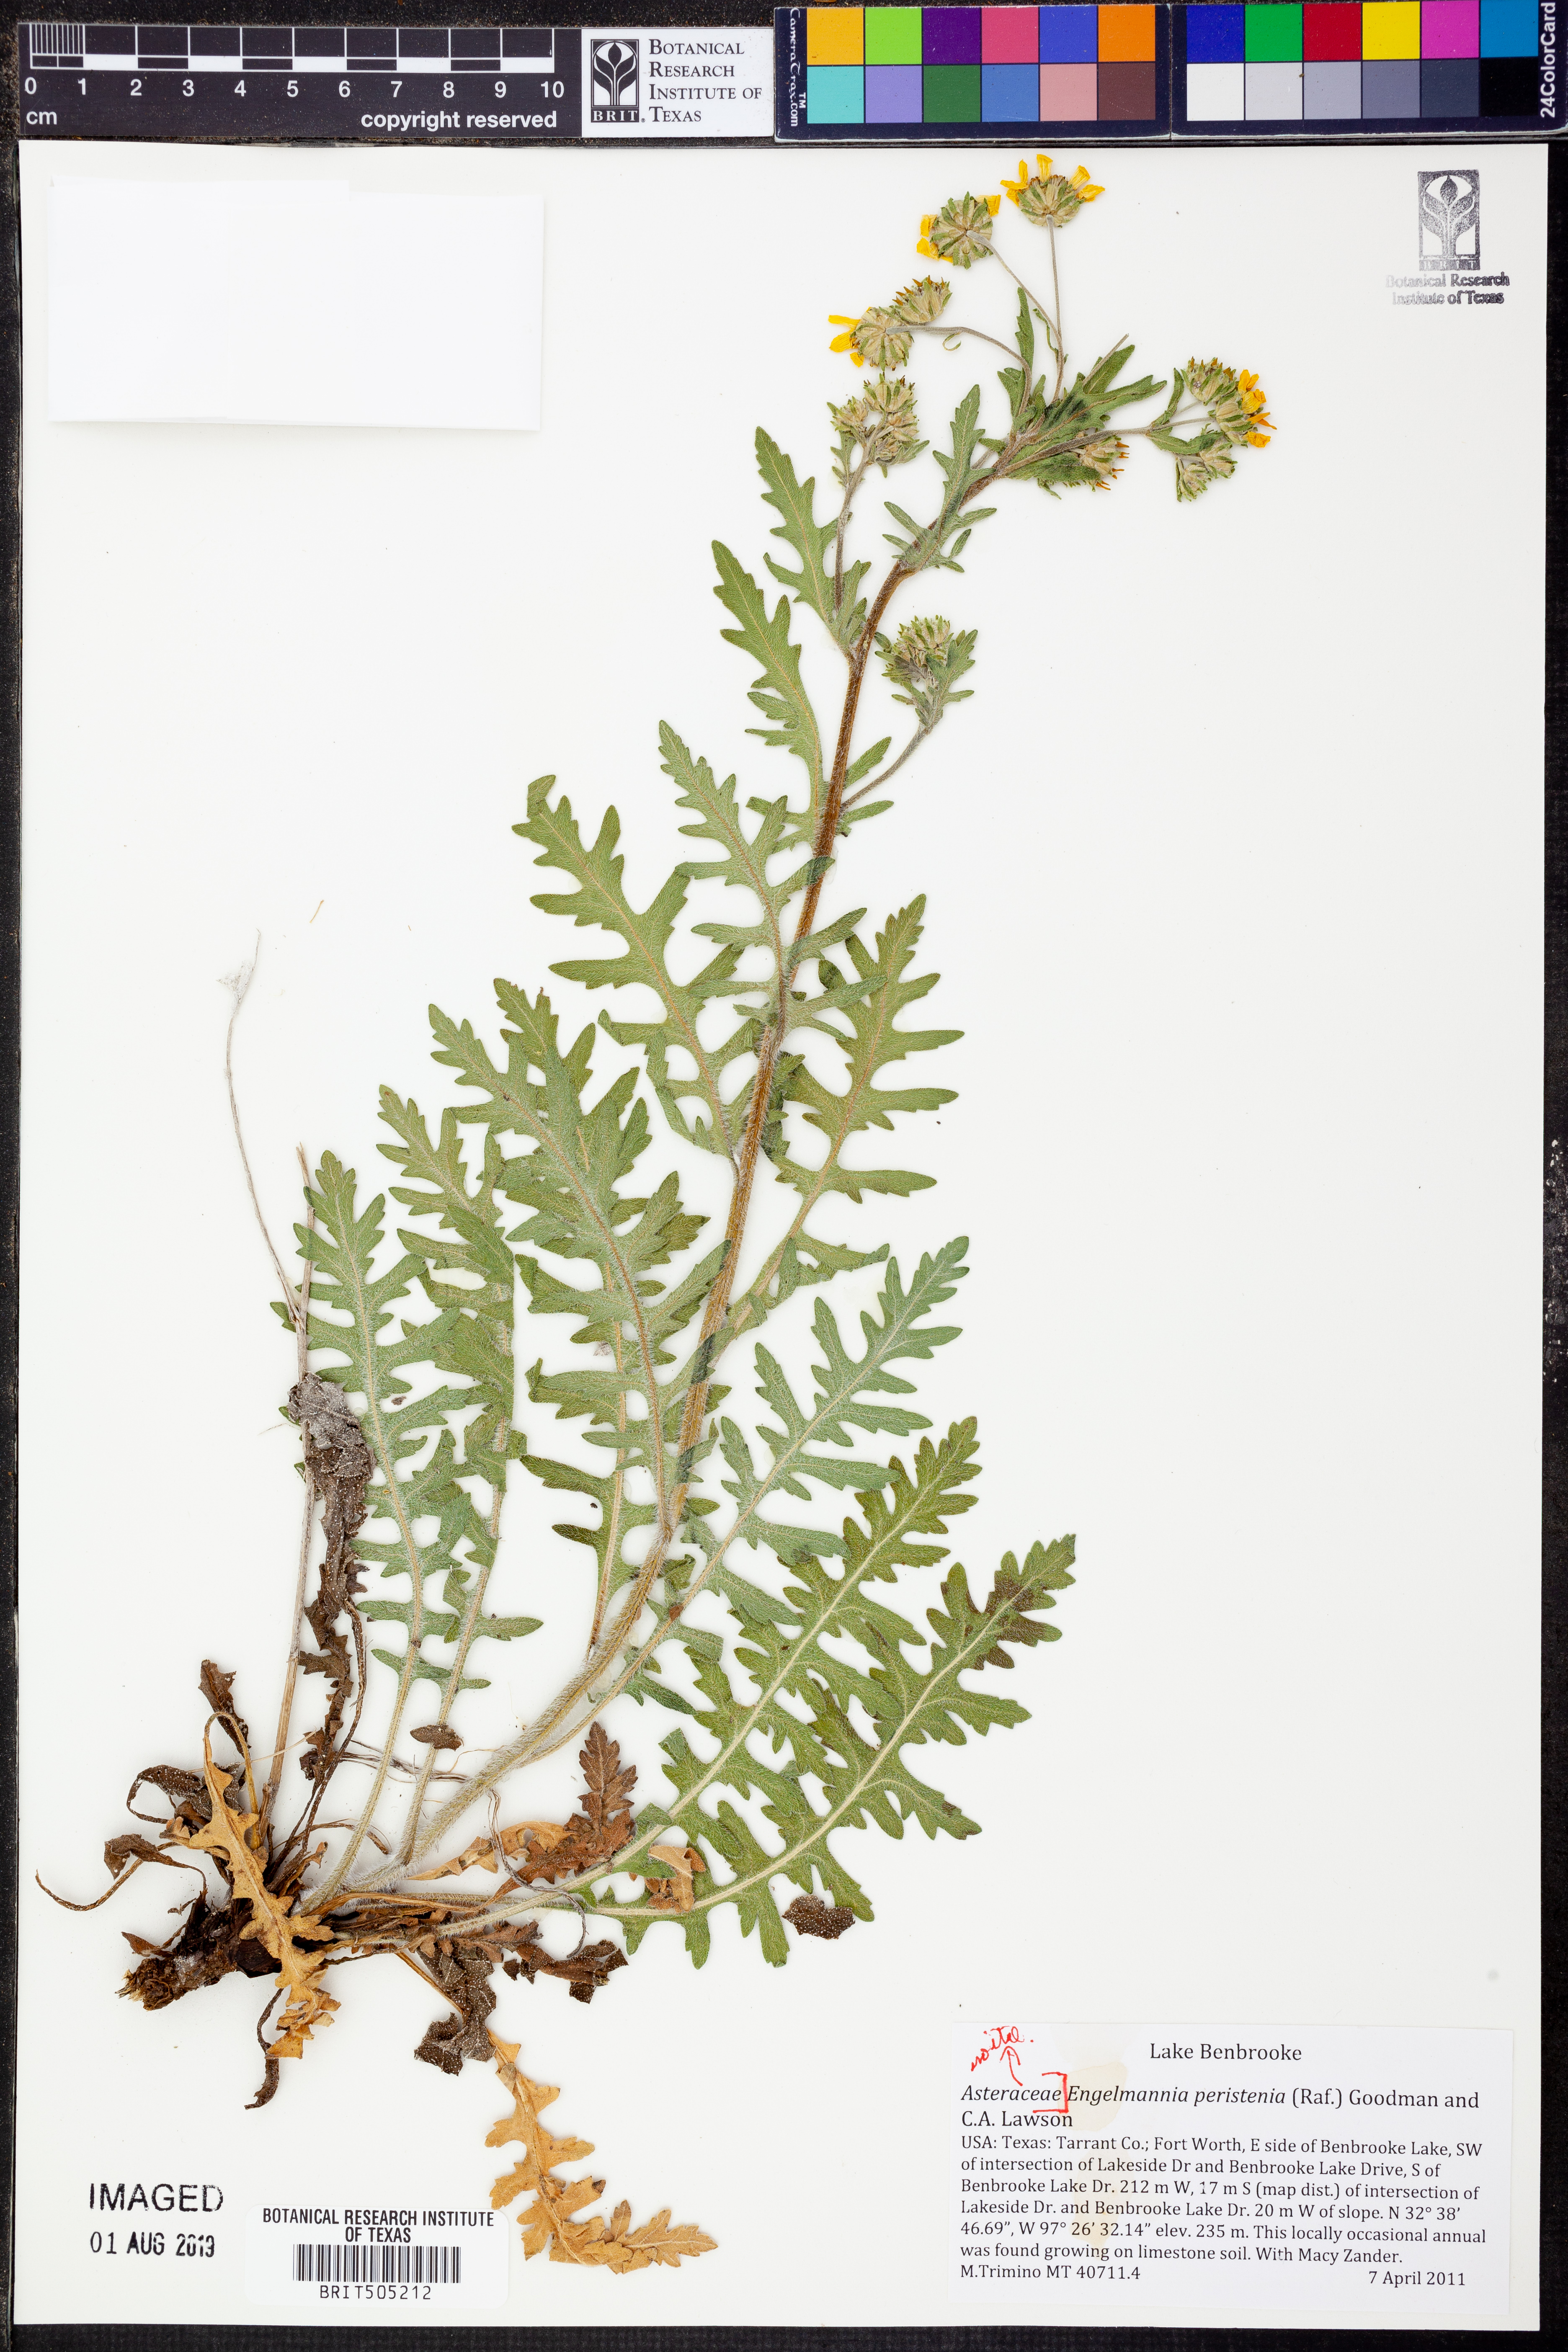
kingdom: Plantae
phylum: Tracheophyta
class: Magnoliopsida
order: Asterales
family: Asteraceae
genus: Engelmannia
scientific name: Engelmannia peristenia
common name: Engelmann's daisy
